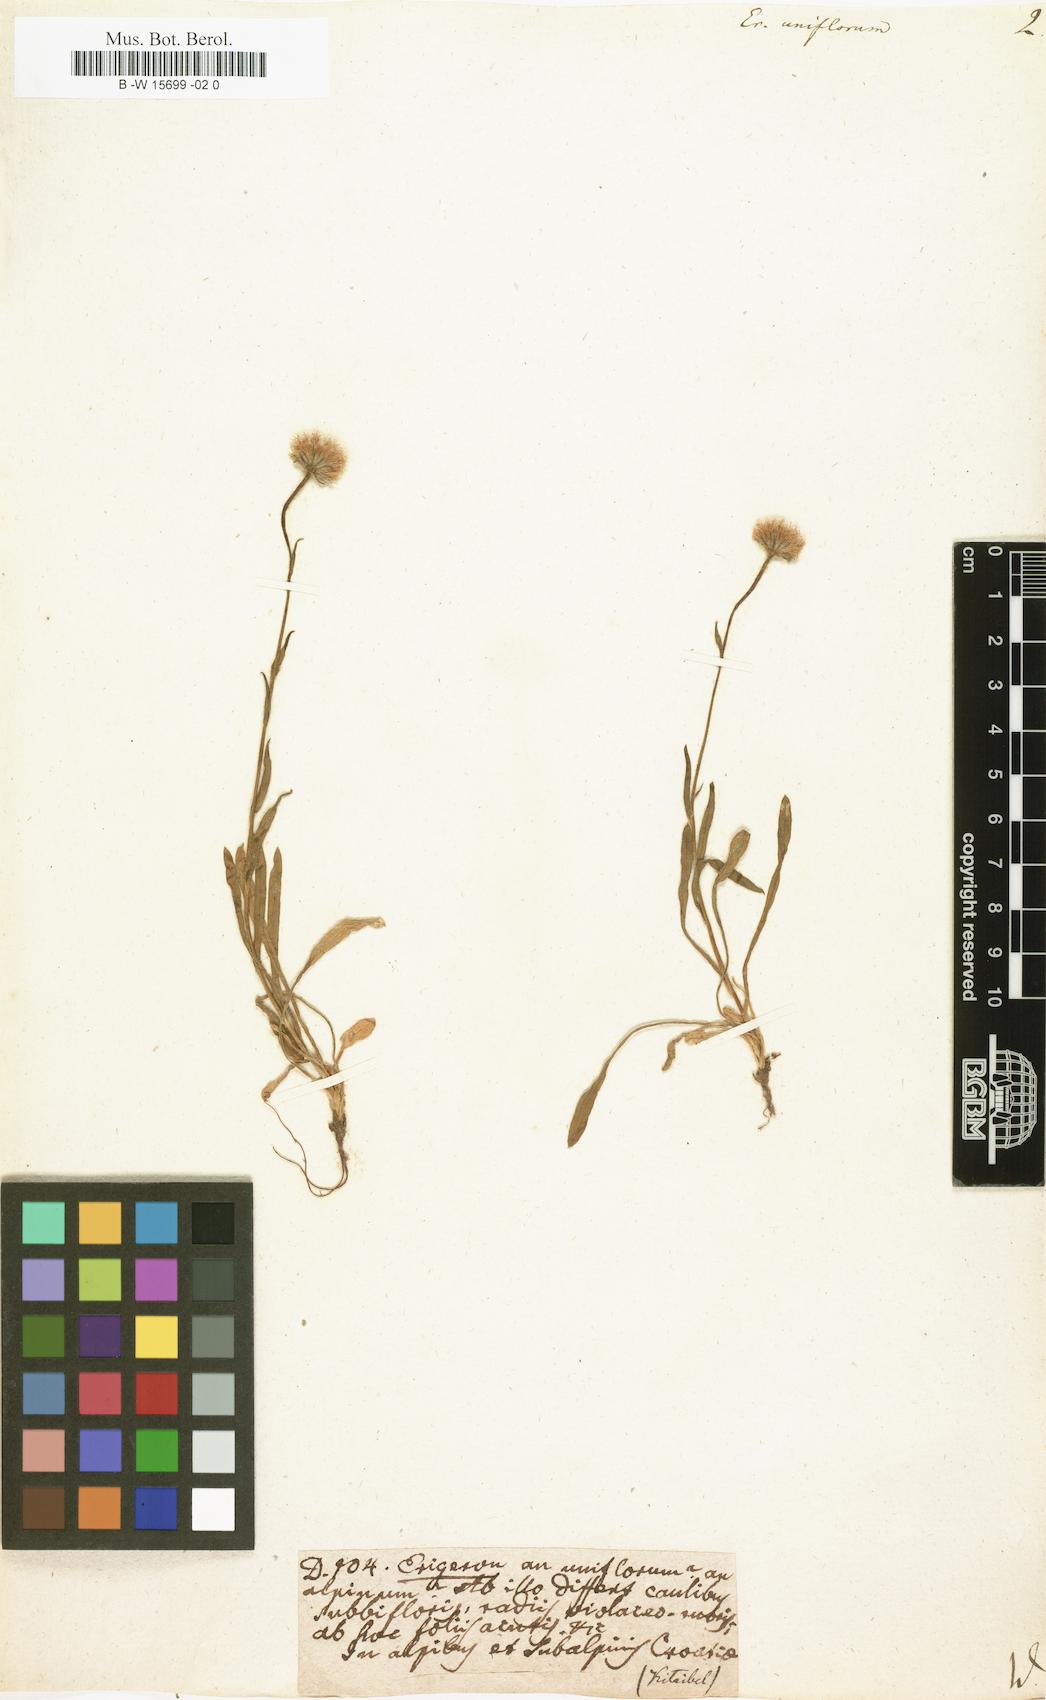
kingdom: Plantae
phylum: Tracheophyta
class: Magnoliopsida
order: Asterales
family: Asteraceae
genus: Erigeron
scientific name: Erigeron uniflorus
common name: Northern daisy
